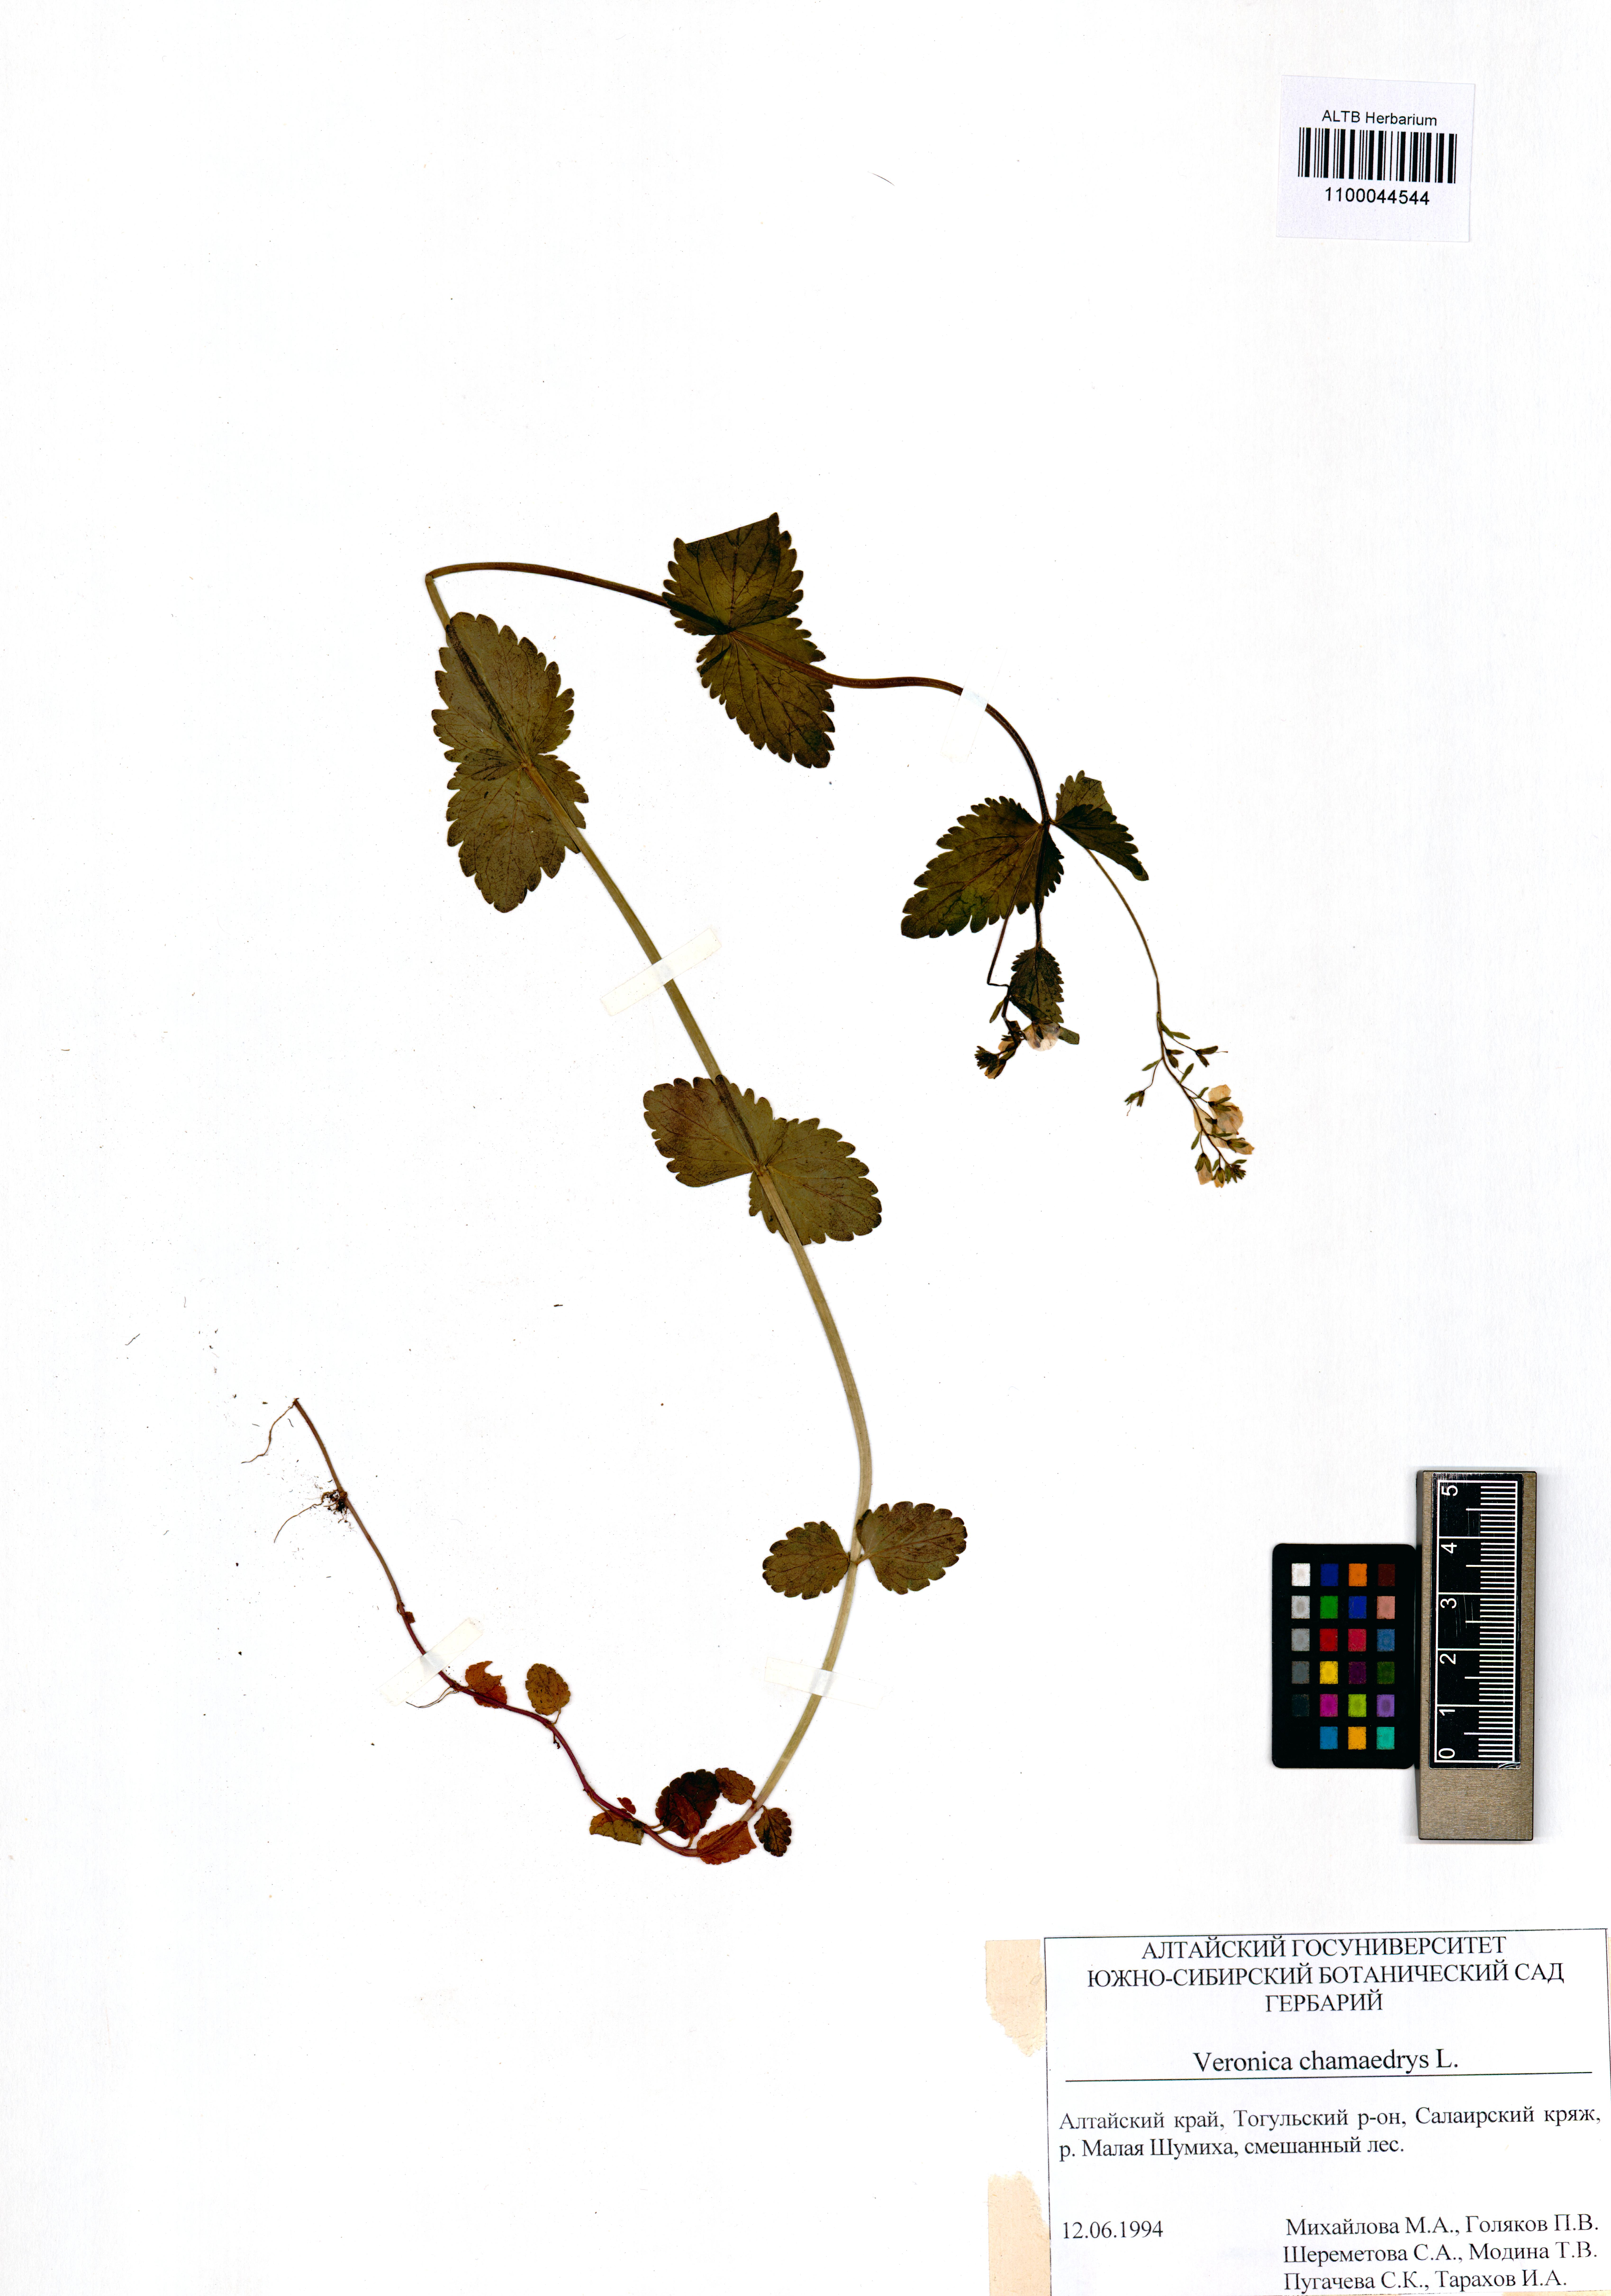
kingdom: Plantae
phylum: Tracheophyta
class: Magnoliopsida
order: Lamiales
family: Plantaginaceae
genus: Veronica
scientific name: Veronica chamaedrys
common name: Germander speedwell
